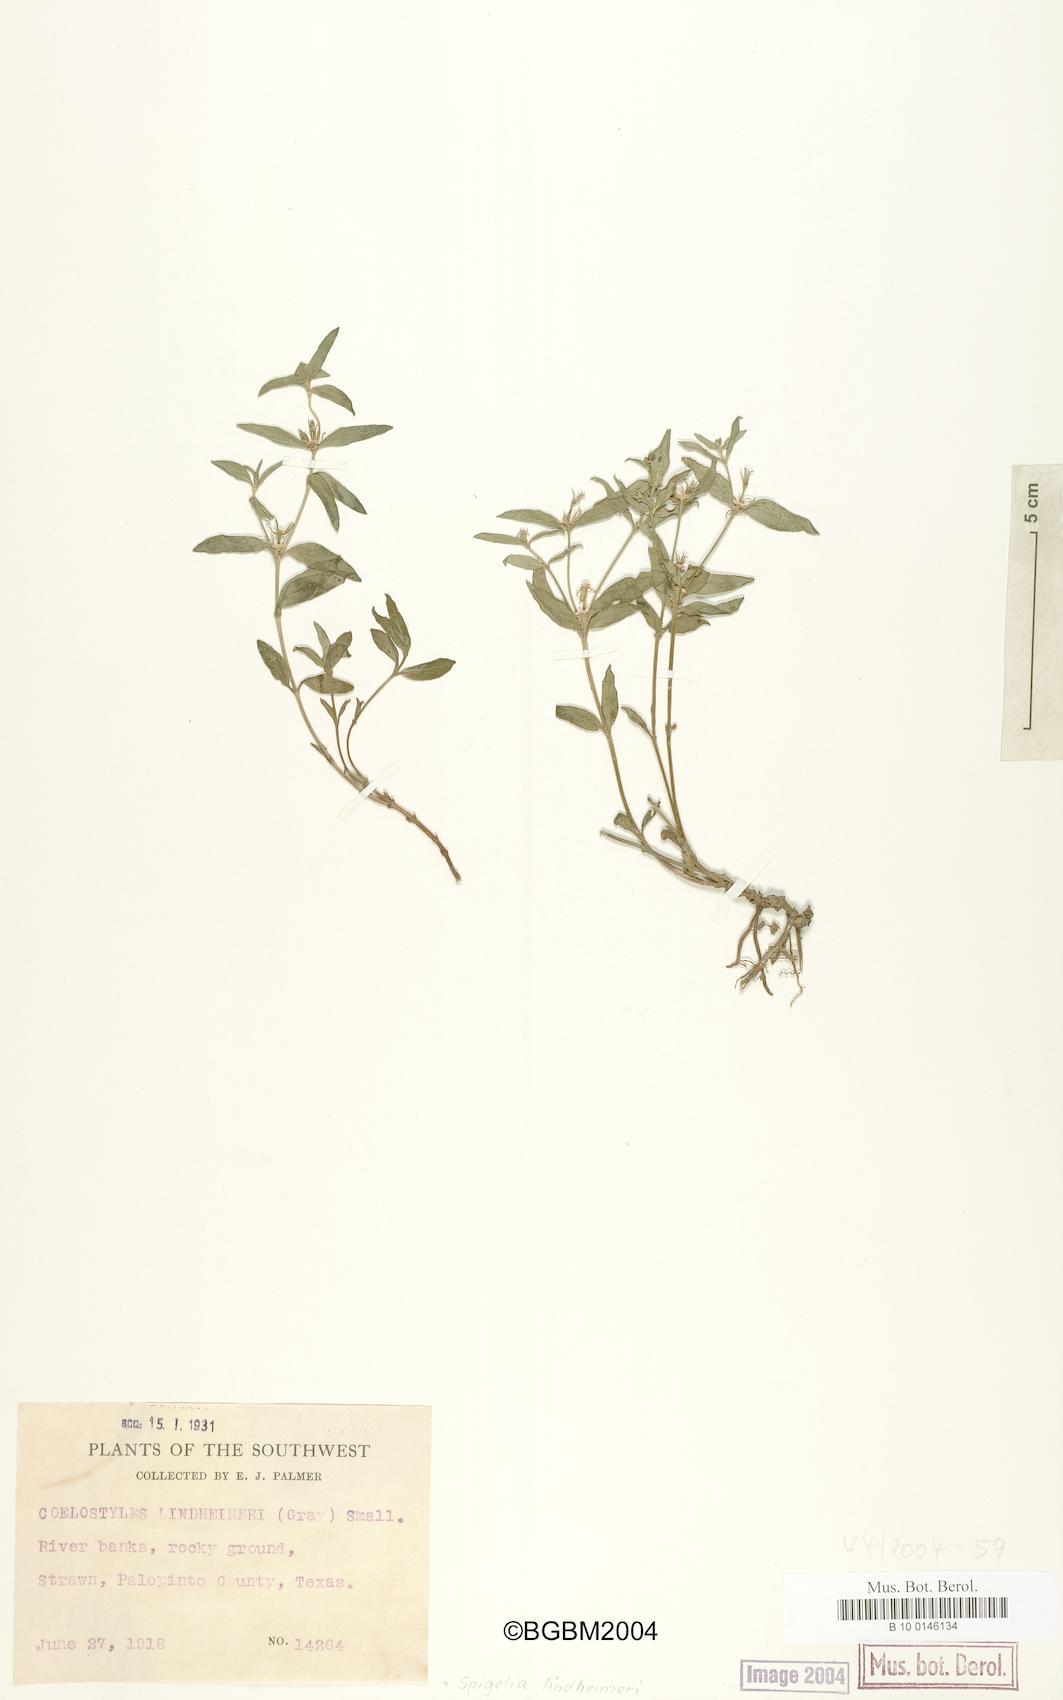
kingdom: Plantae
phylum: Tracheophyta
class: Magnoliopsida
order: Gentianales
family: Loganiaceae
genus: Spigelia
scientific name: Spigelia hedyotidea
